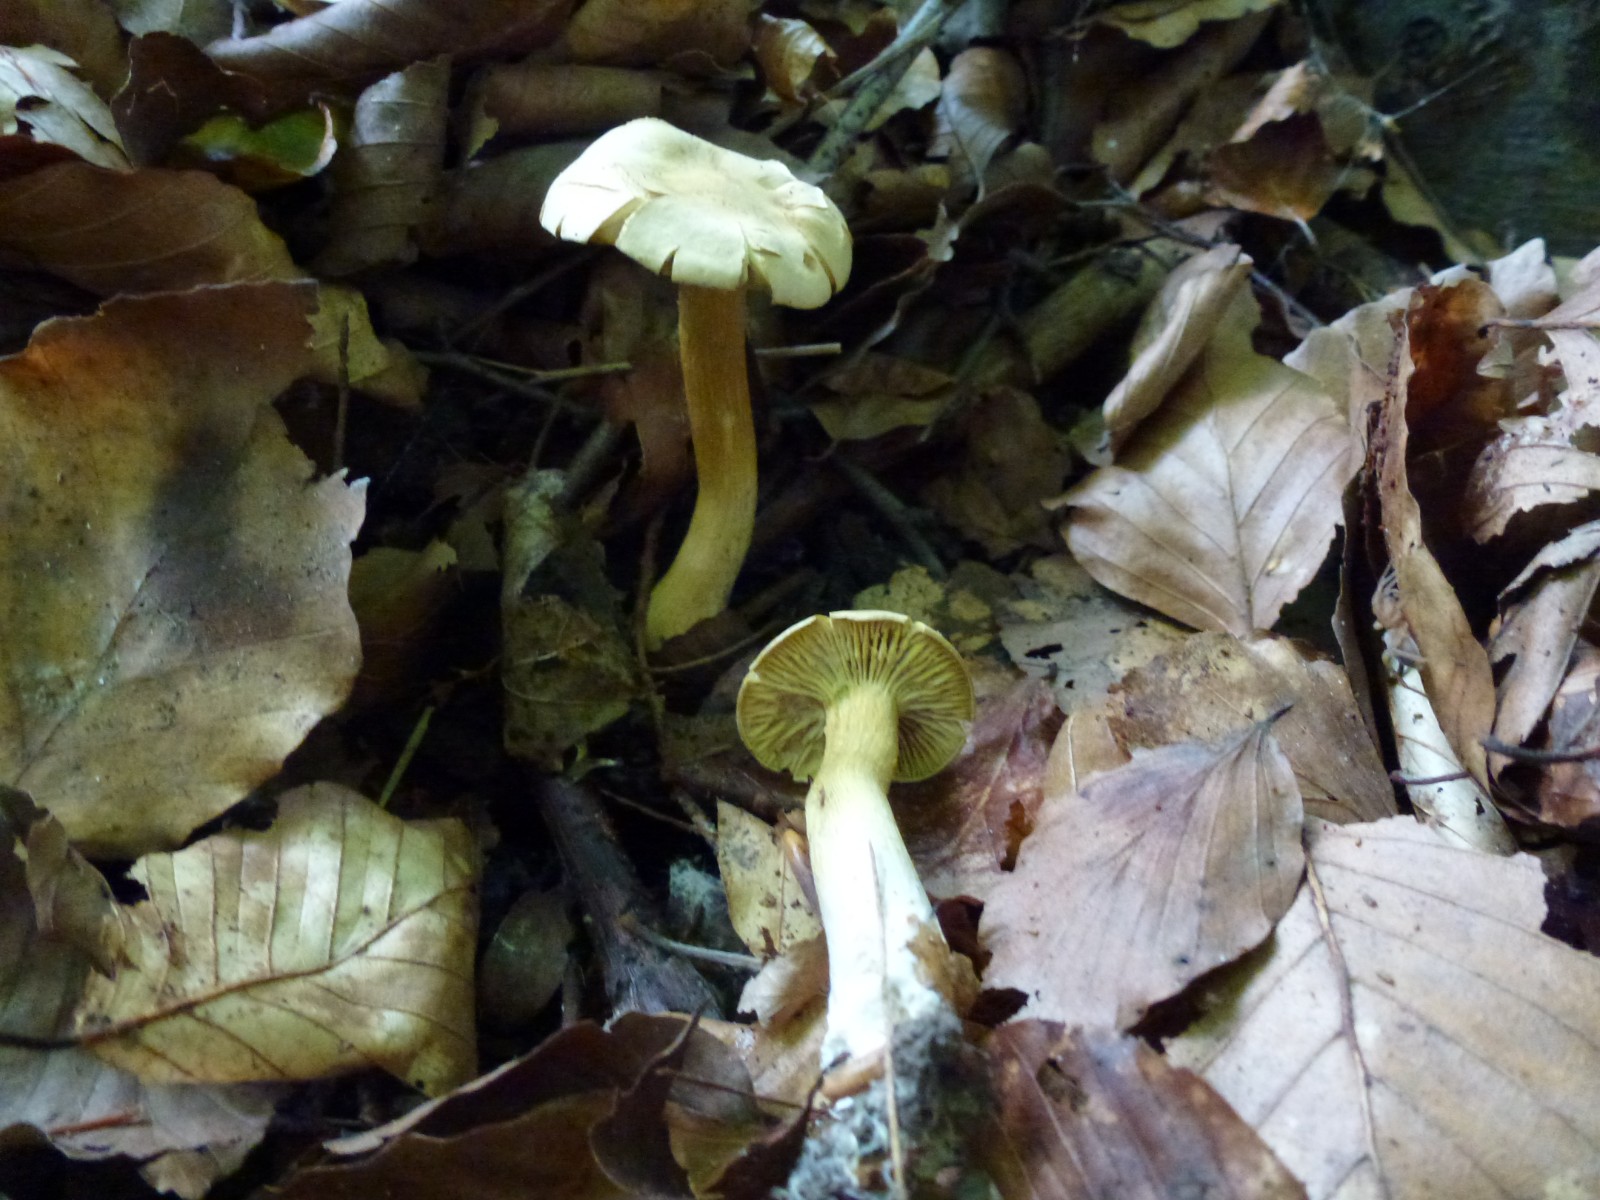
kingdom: Fungi
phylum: Basidiomycota
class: Agaricomycetes
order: Agaricales
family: Tricholomataceae
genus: Tricholoma
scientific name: Tricholoma sulphureum
